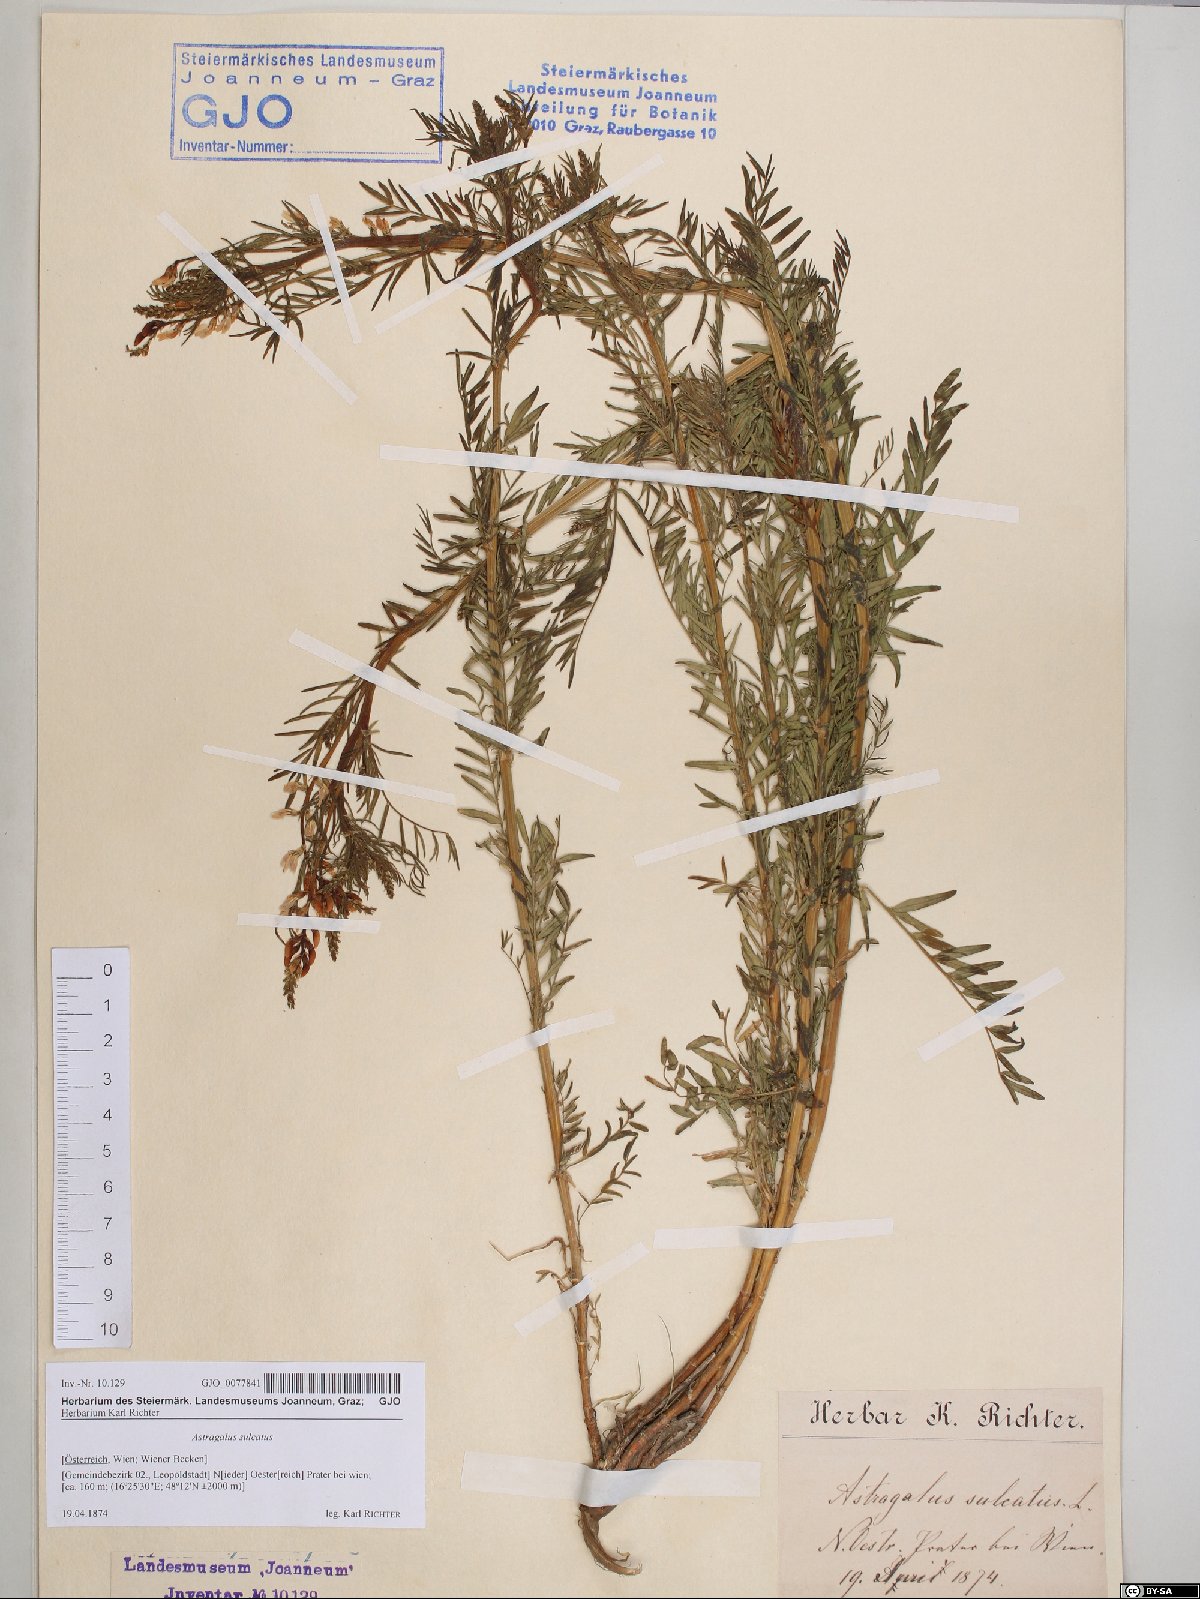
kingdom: Plantae
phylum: Tracheophyta
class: Magnoliopsida
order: Fabales
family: Fabaceae
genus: Astragalus
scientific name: Astragalus sulcatus
